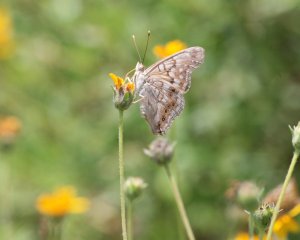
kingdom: Animalia
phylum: Arthropoda
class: Insecta
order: Lepidoptera
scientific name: Lepidoptera
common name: Butterflies
